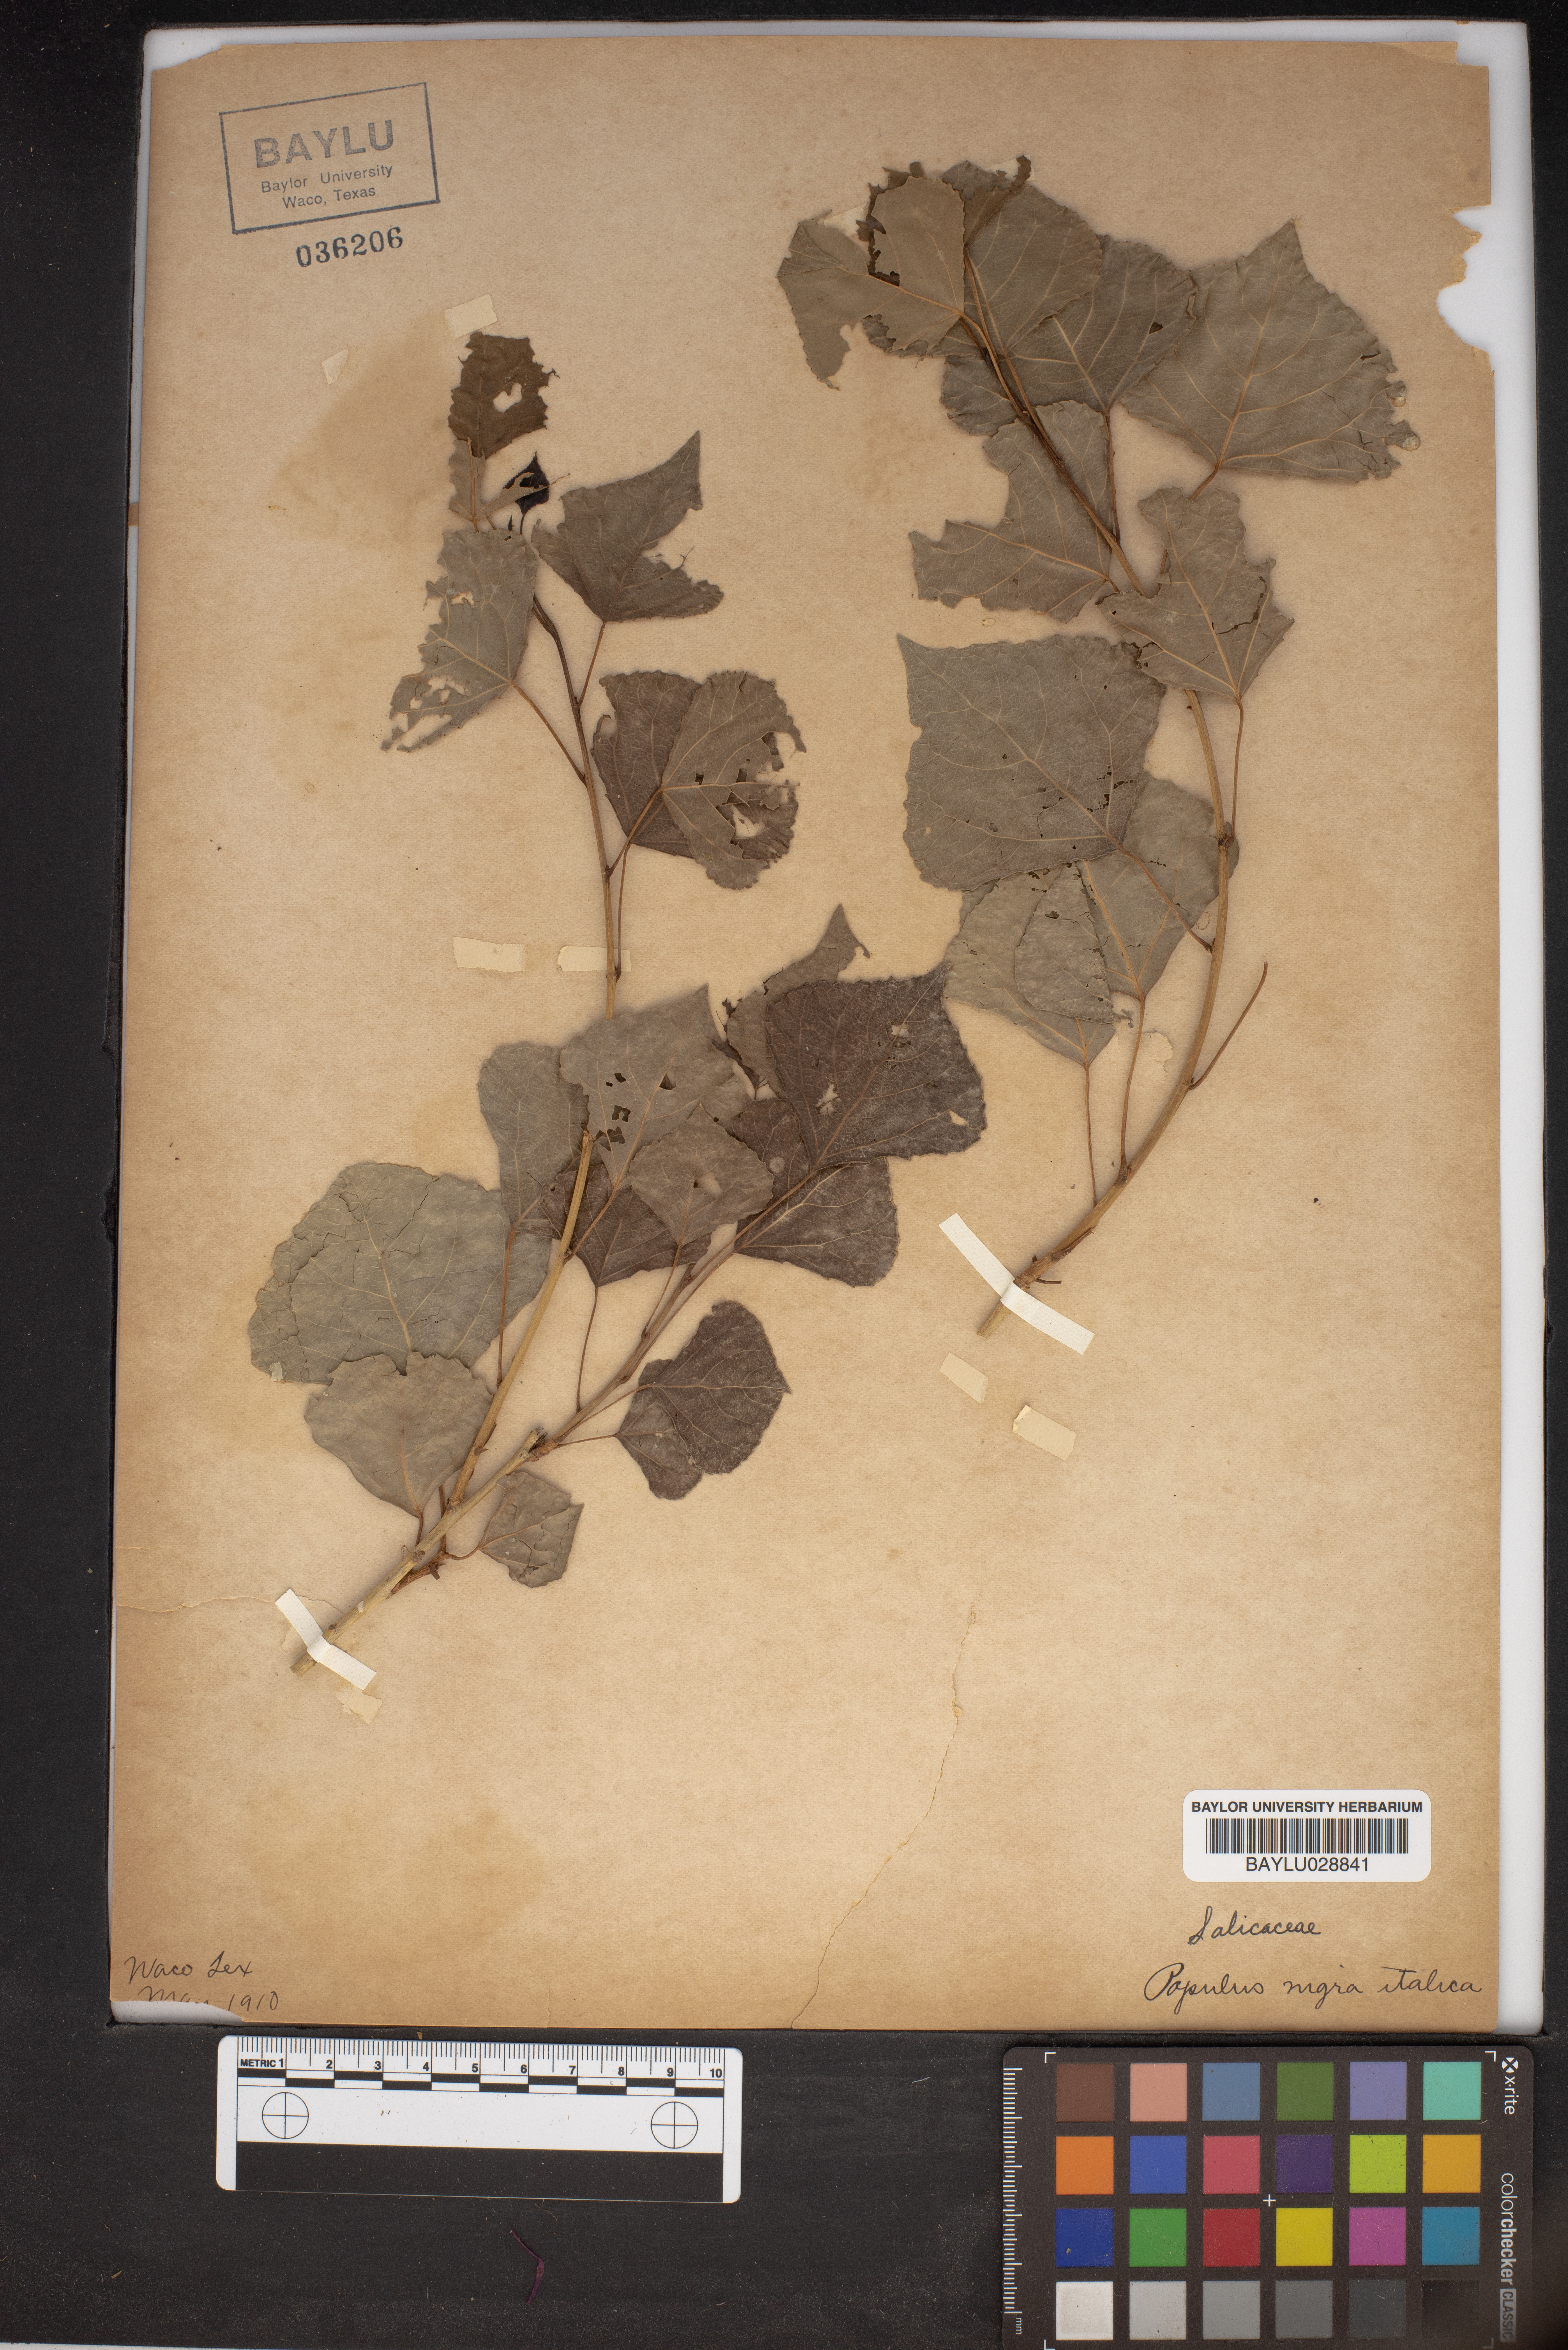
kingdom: Plantae
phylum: Tracheophyta
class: Magnoliopsida
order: Malpighiales
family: Salicaceae
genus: Populus
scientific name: Populus nigra
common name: Black poplar
